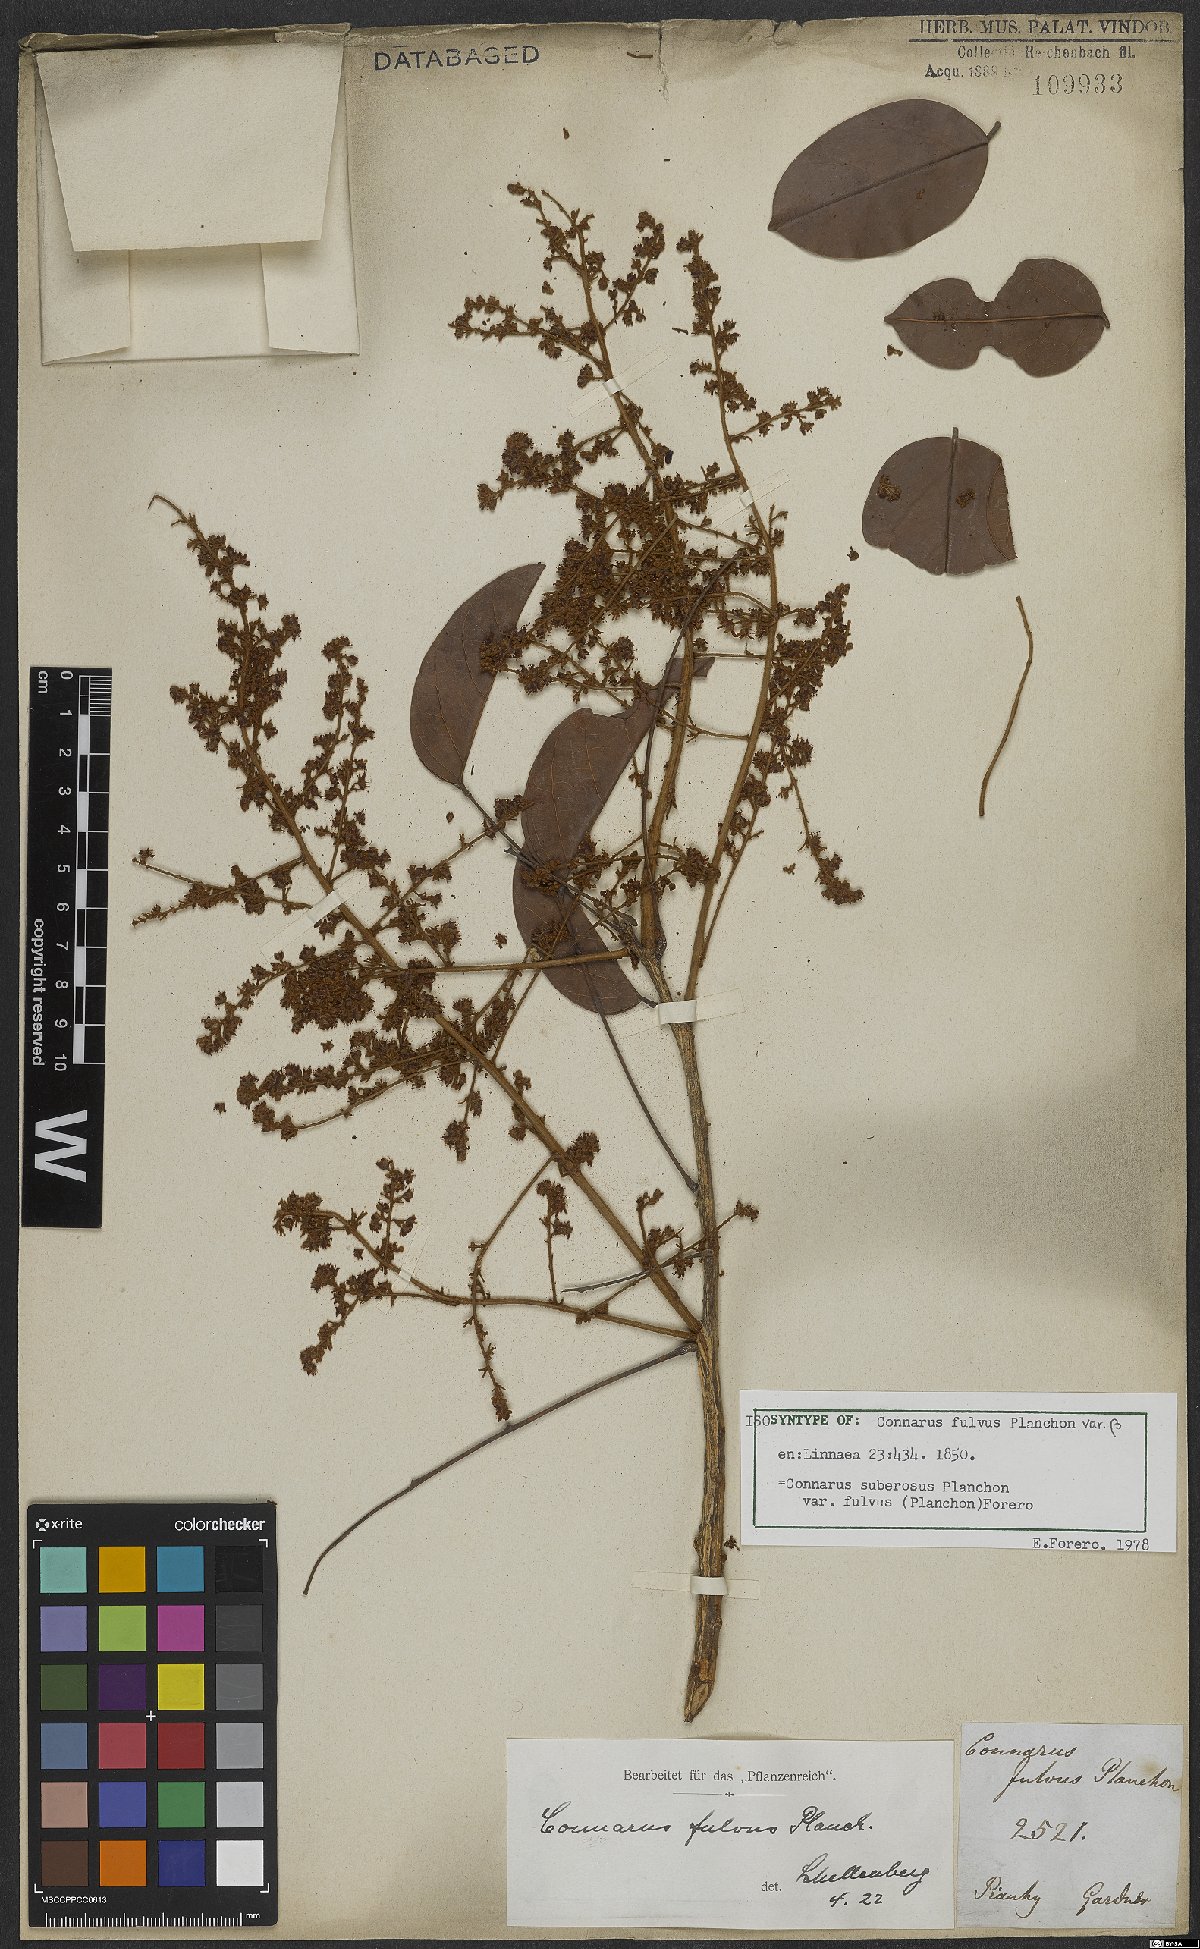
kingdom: Plantae
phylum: Tracheophyta
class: Magnoliopsida
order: Oxalidales
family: Connaraceae
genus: Connarus
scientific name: Connarus suberosus
